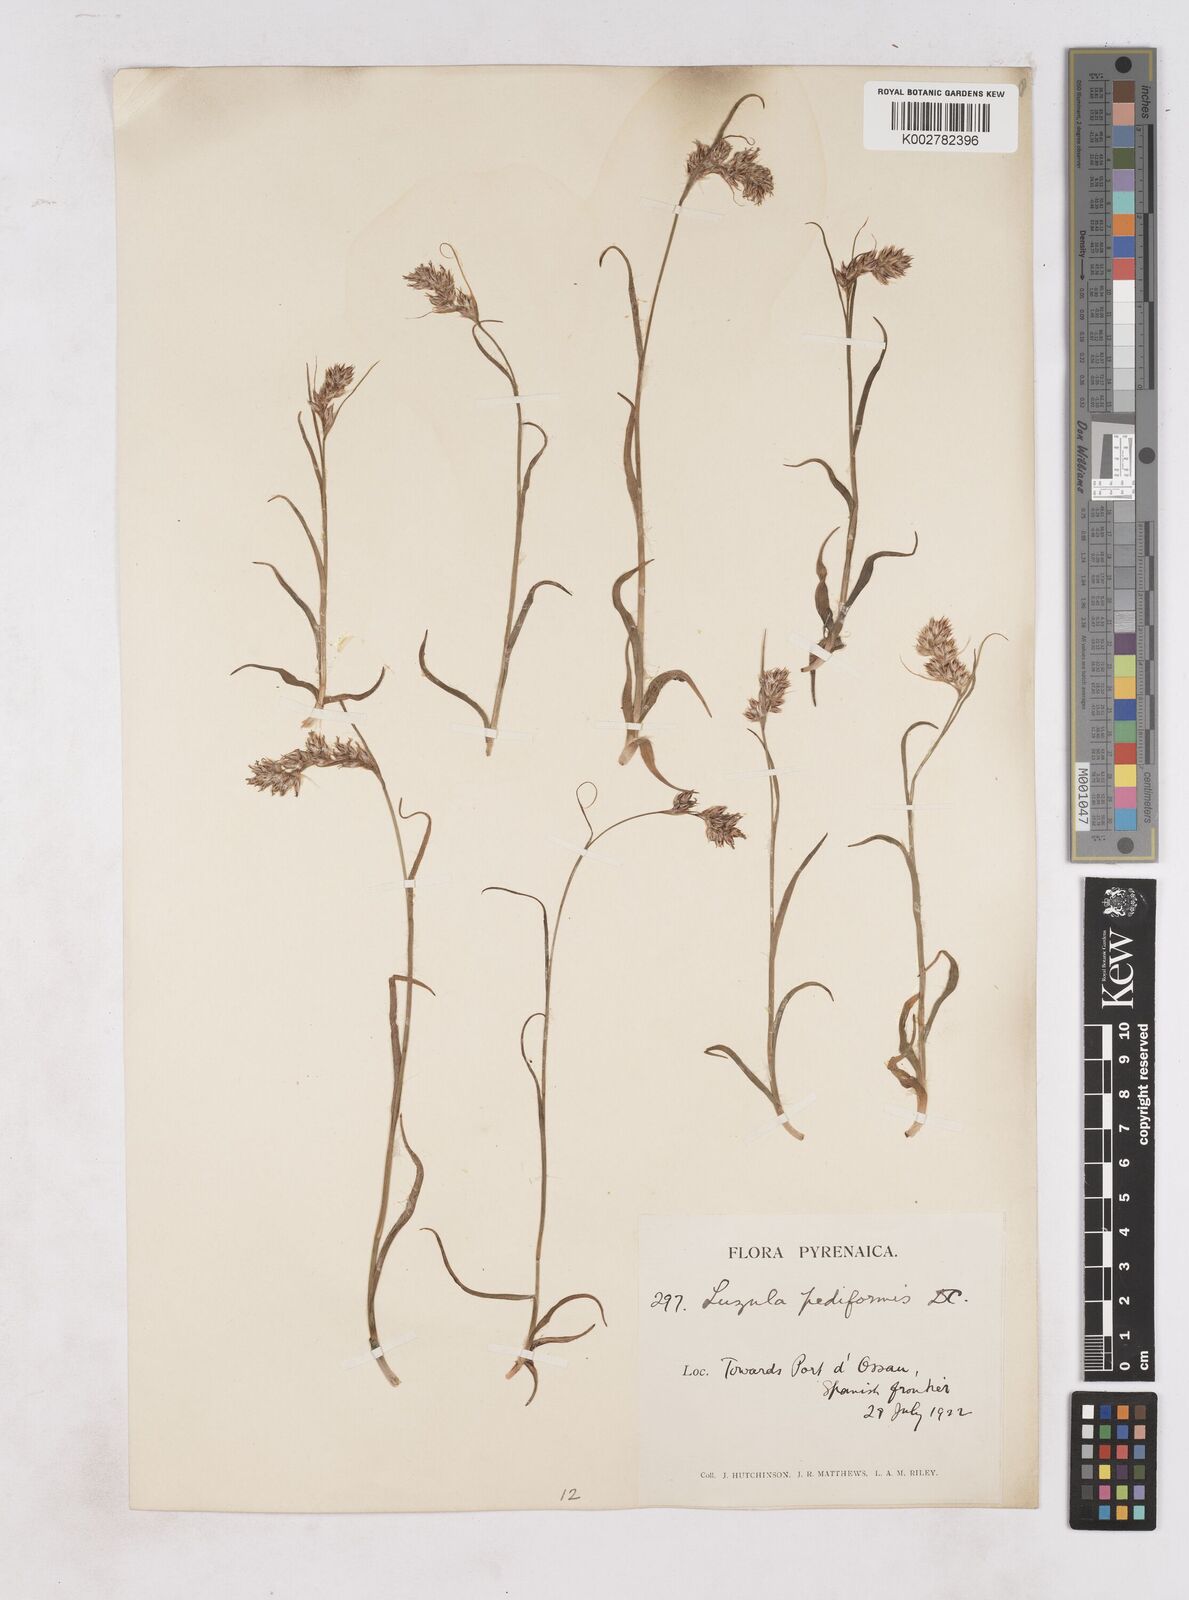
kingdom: Plantae
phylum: Tracheophyta
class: Liliopsida
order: Poales
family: Juncaceae
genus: Luzula
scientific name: Luzula pediformis
